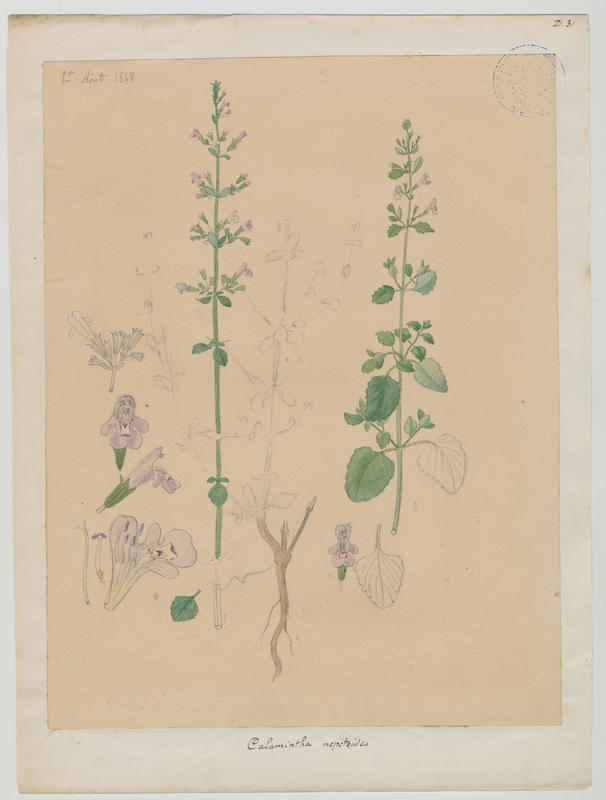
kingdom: Plantae
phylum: Tracheophyta
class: Magnoliopsida
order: Lamiales
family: Lamiaceae
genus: Clinopodium
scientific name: Clinopodium nepeta
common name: Lesser calamint
